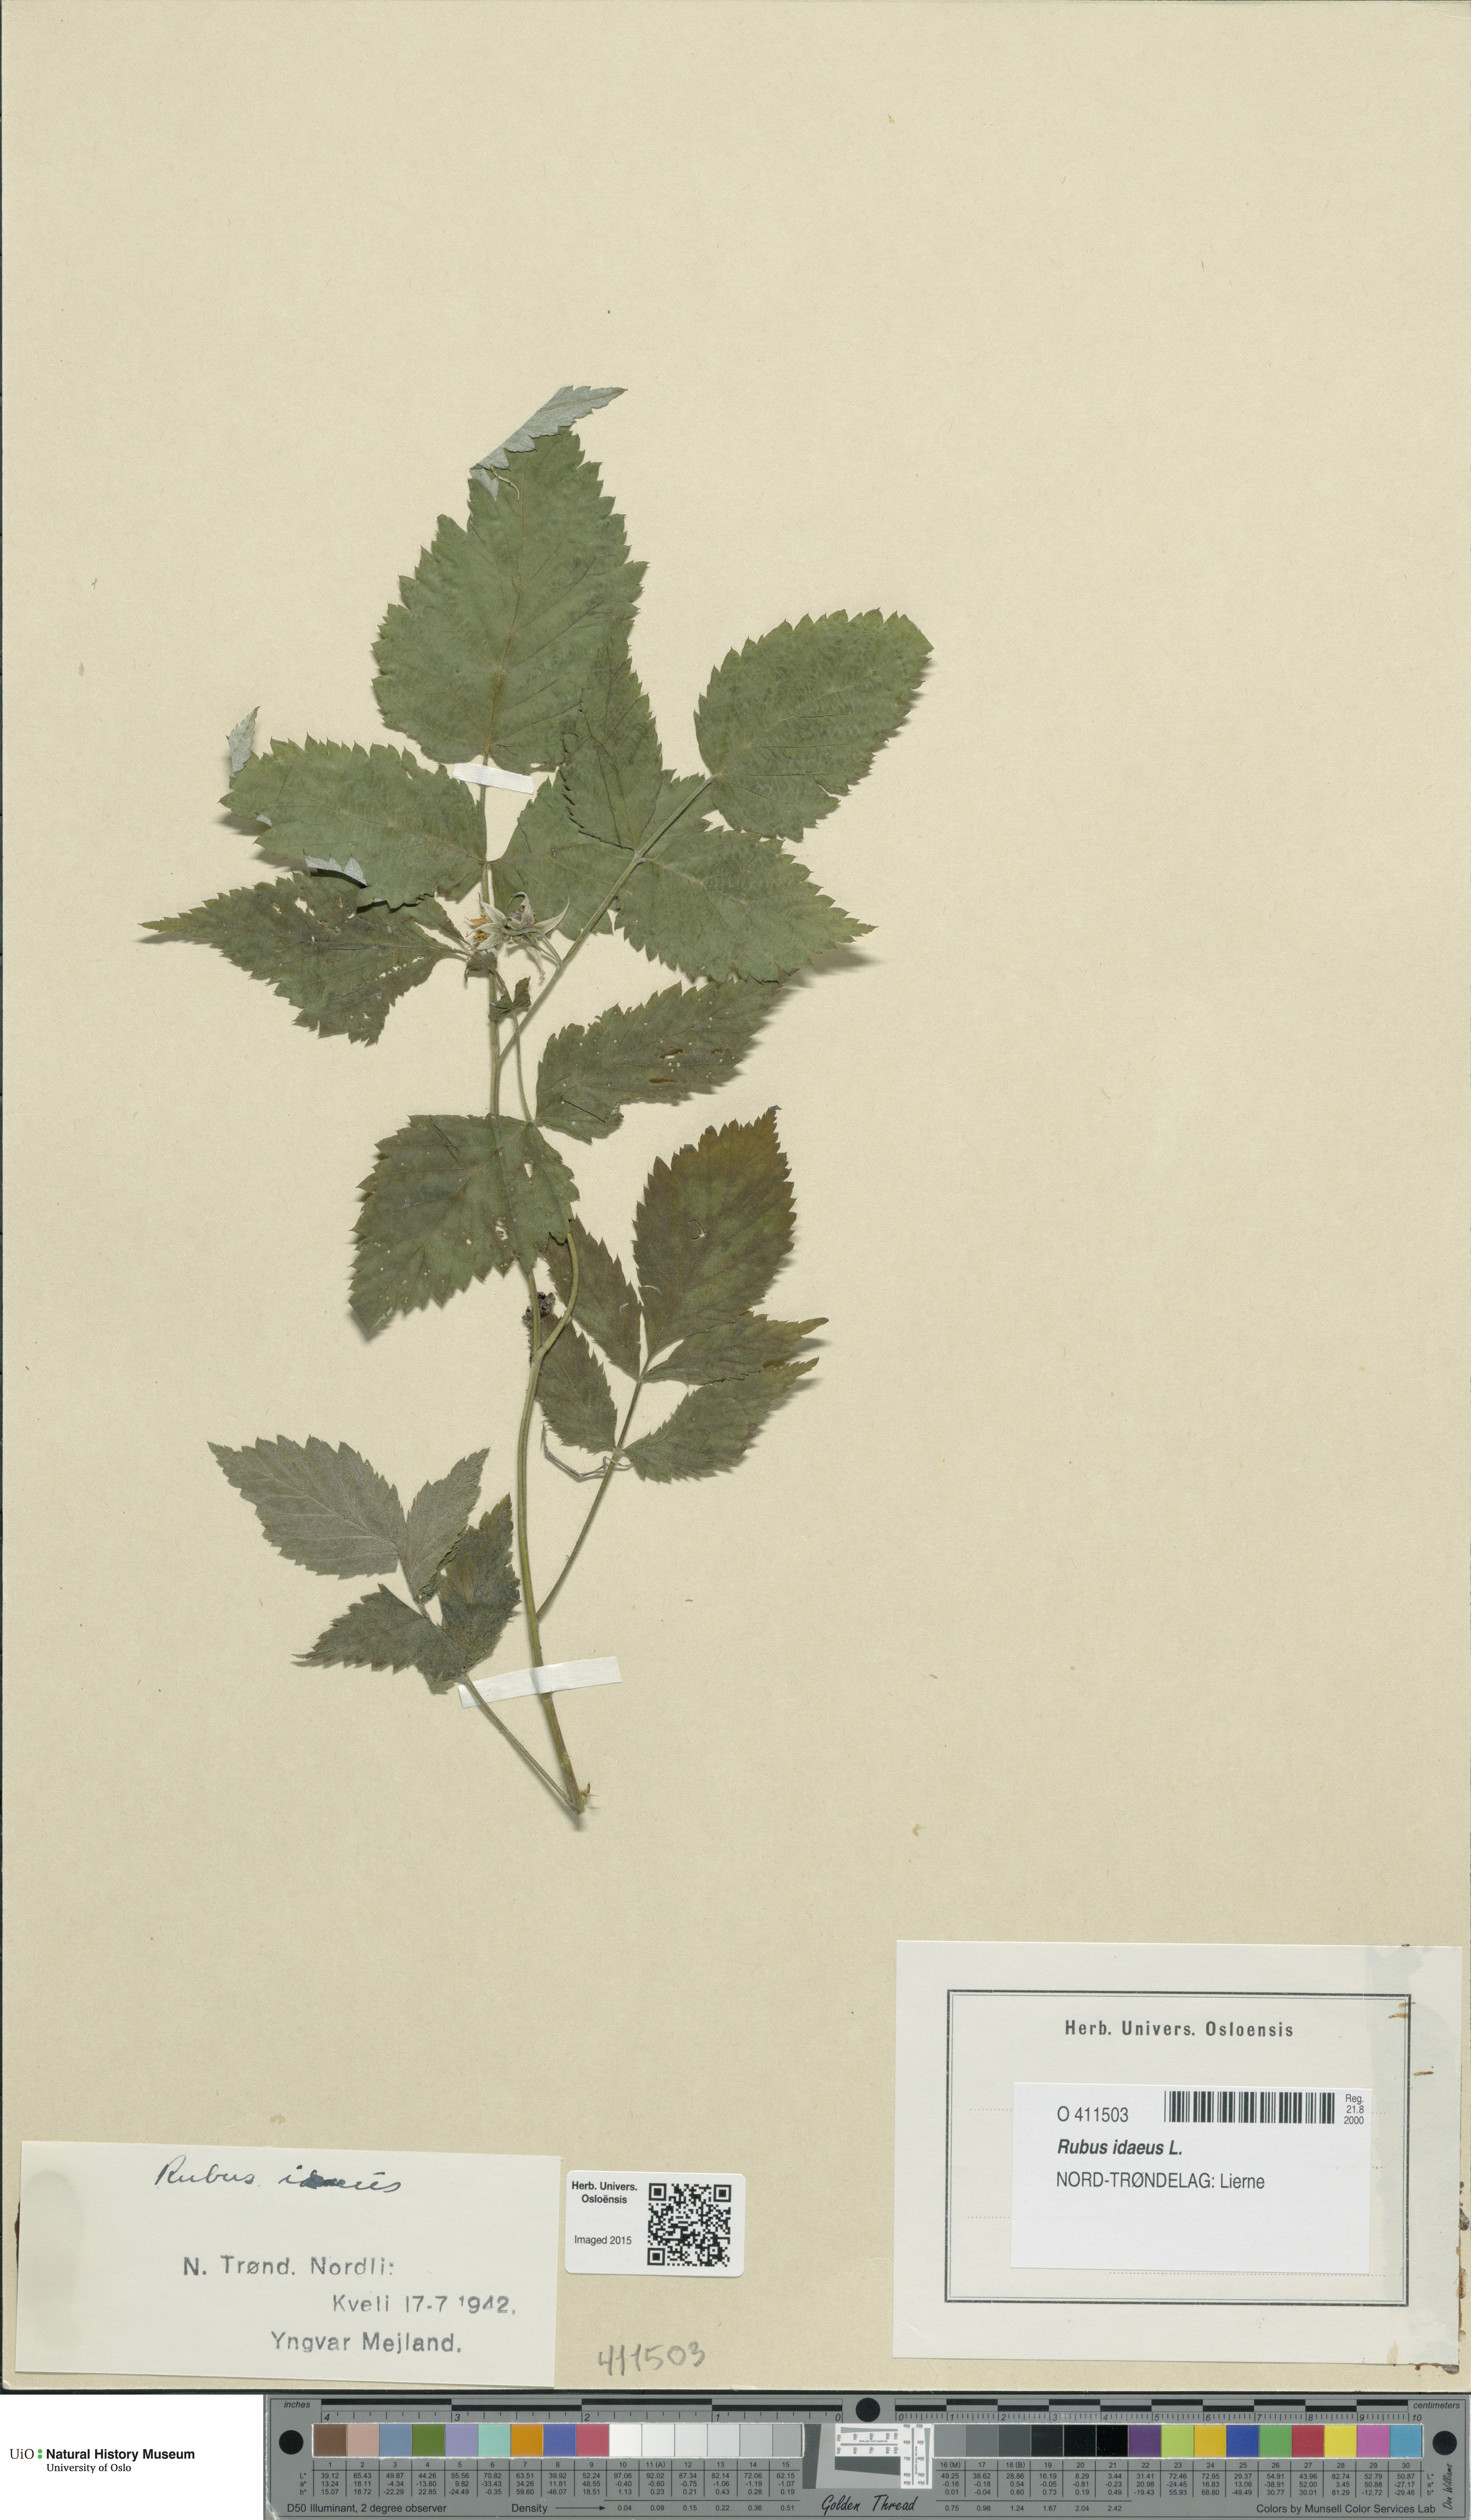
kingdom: Plantae
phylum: Tracheophyta
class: Magnoliopsida
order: Rosales
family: Rosaceae
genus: Rubus
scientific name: Rubus idaeus
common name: Raspberry
